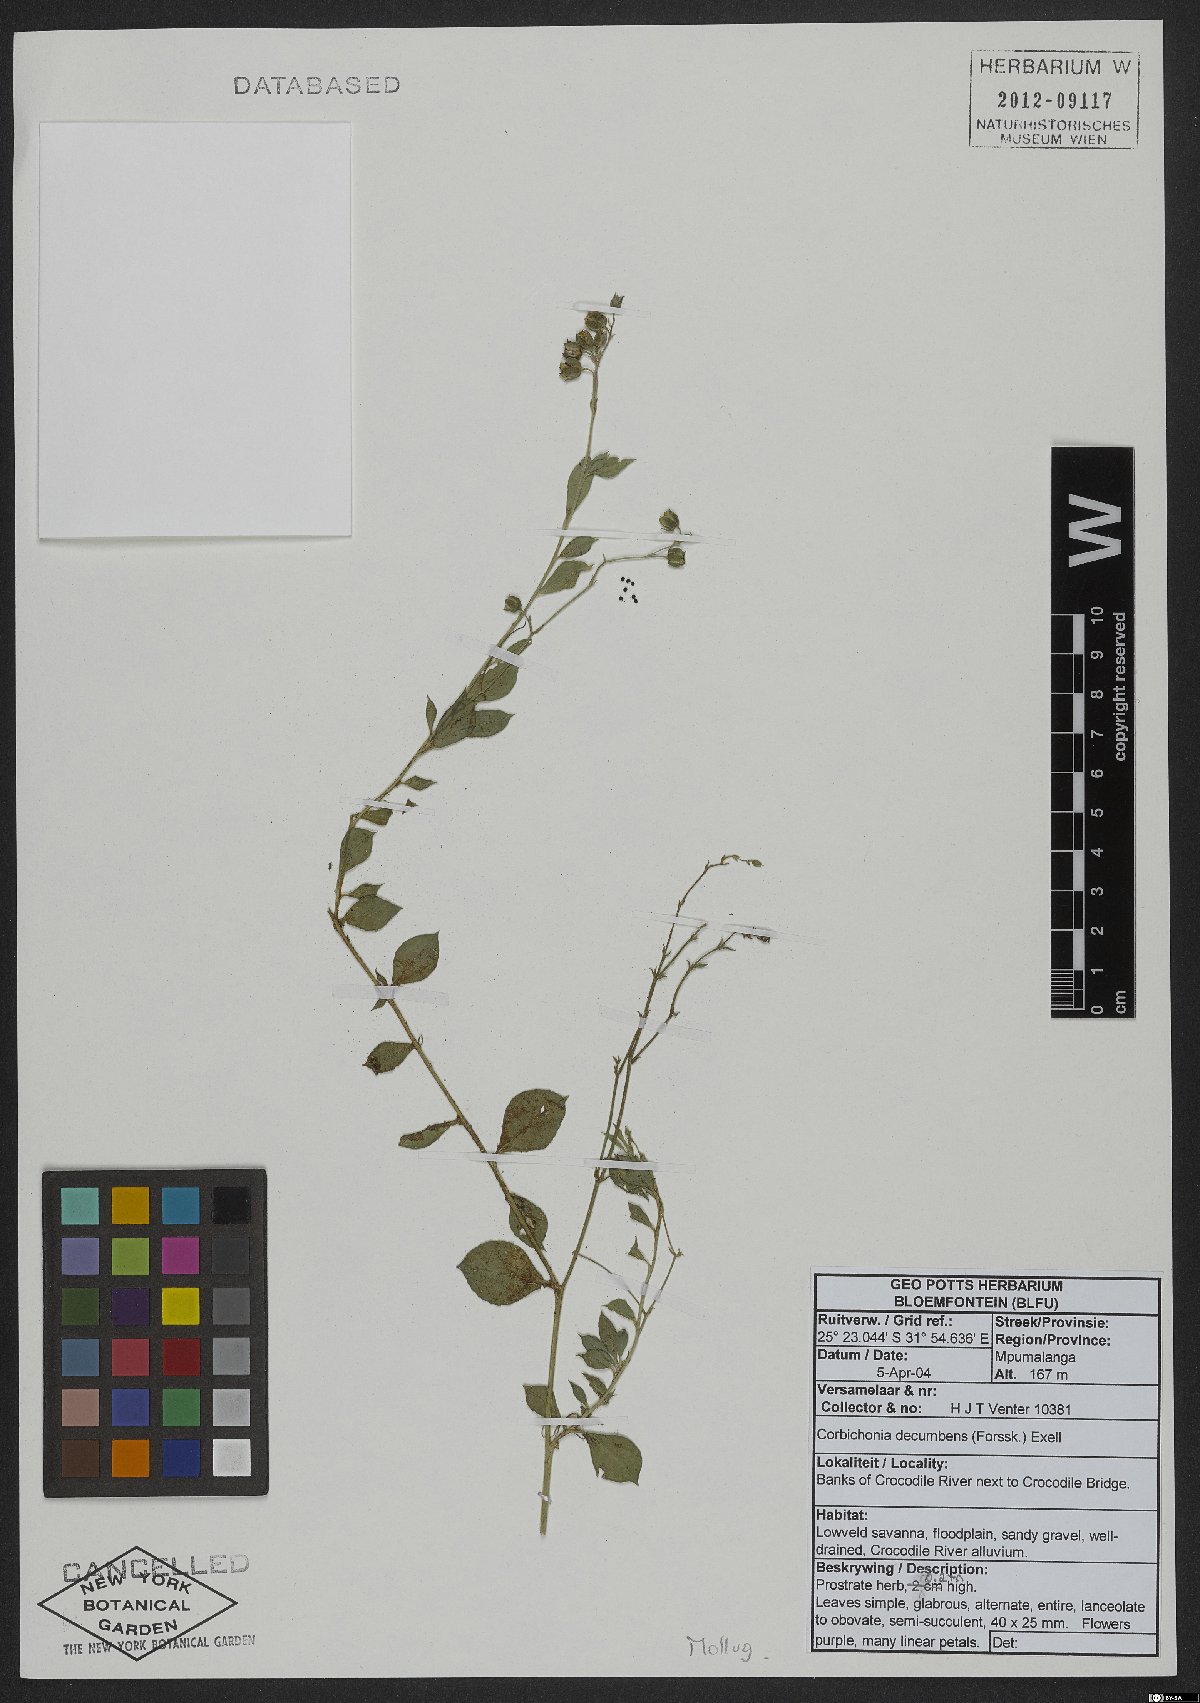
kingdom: Plantae
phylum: Tracheophyta
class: Magnoliopsida
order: Caryophyllales
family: Corbichoniaceae
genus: Corbichonia
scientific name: Corbichonia decumbens
